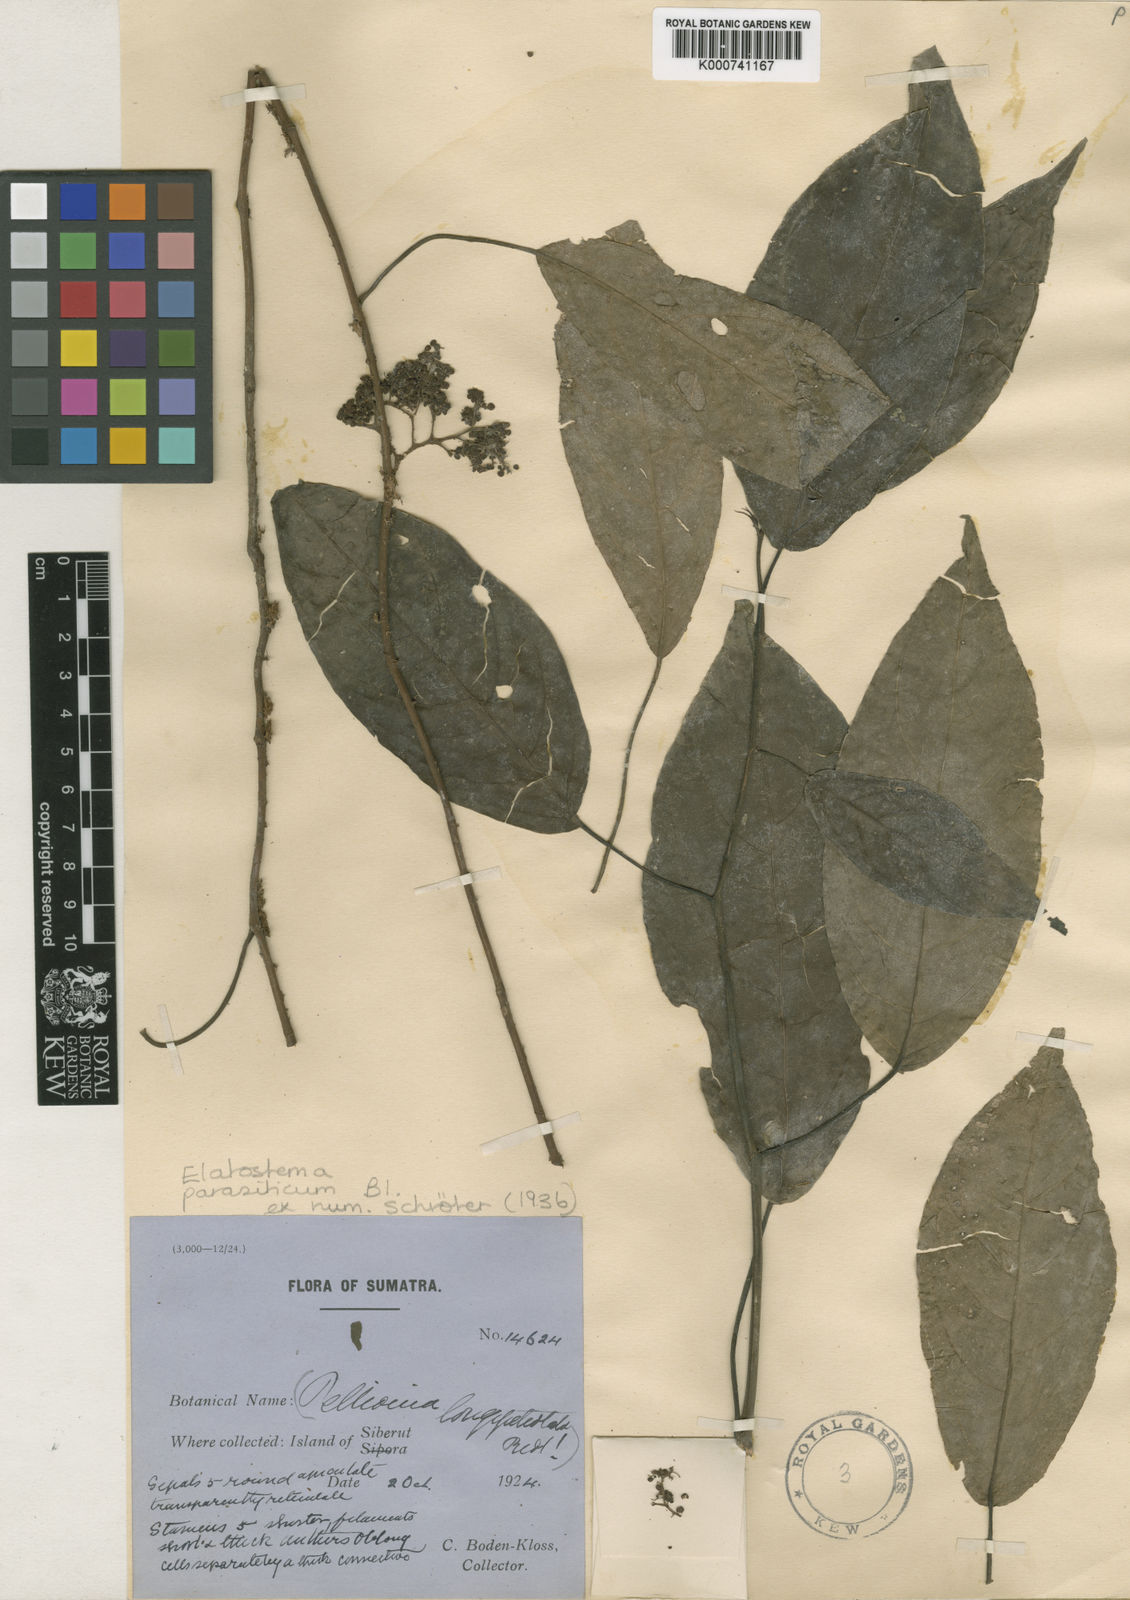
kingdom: Plantae
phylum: Tracheophyta
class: Magnoliopsida
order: Rosales
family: Urticaceae
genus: Elatostematoides
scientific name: Elatostematoides scandens
